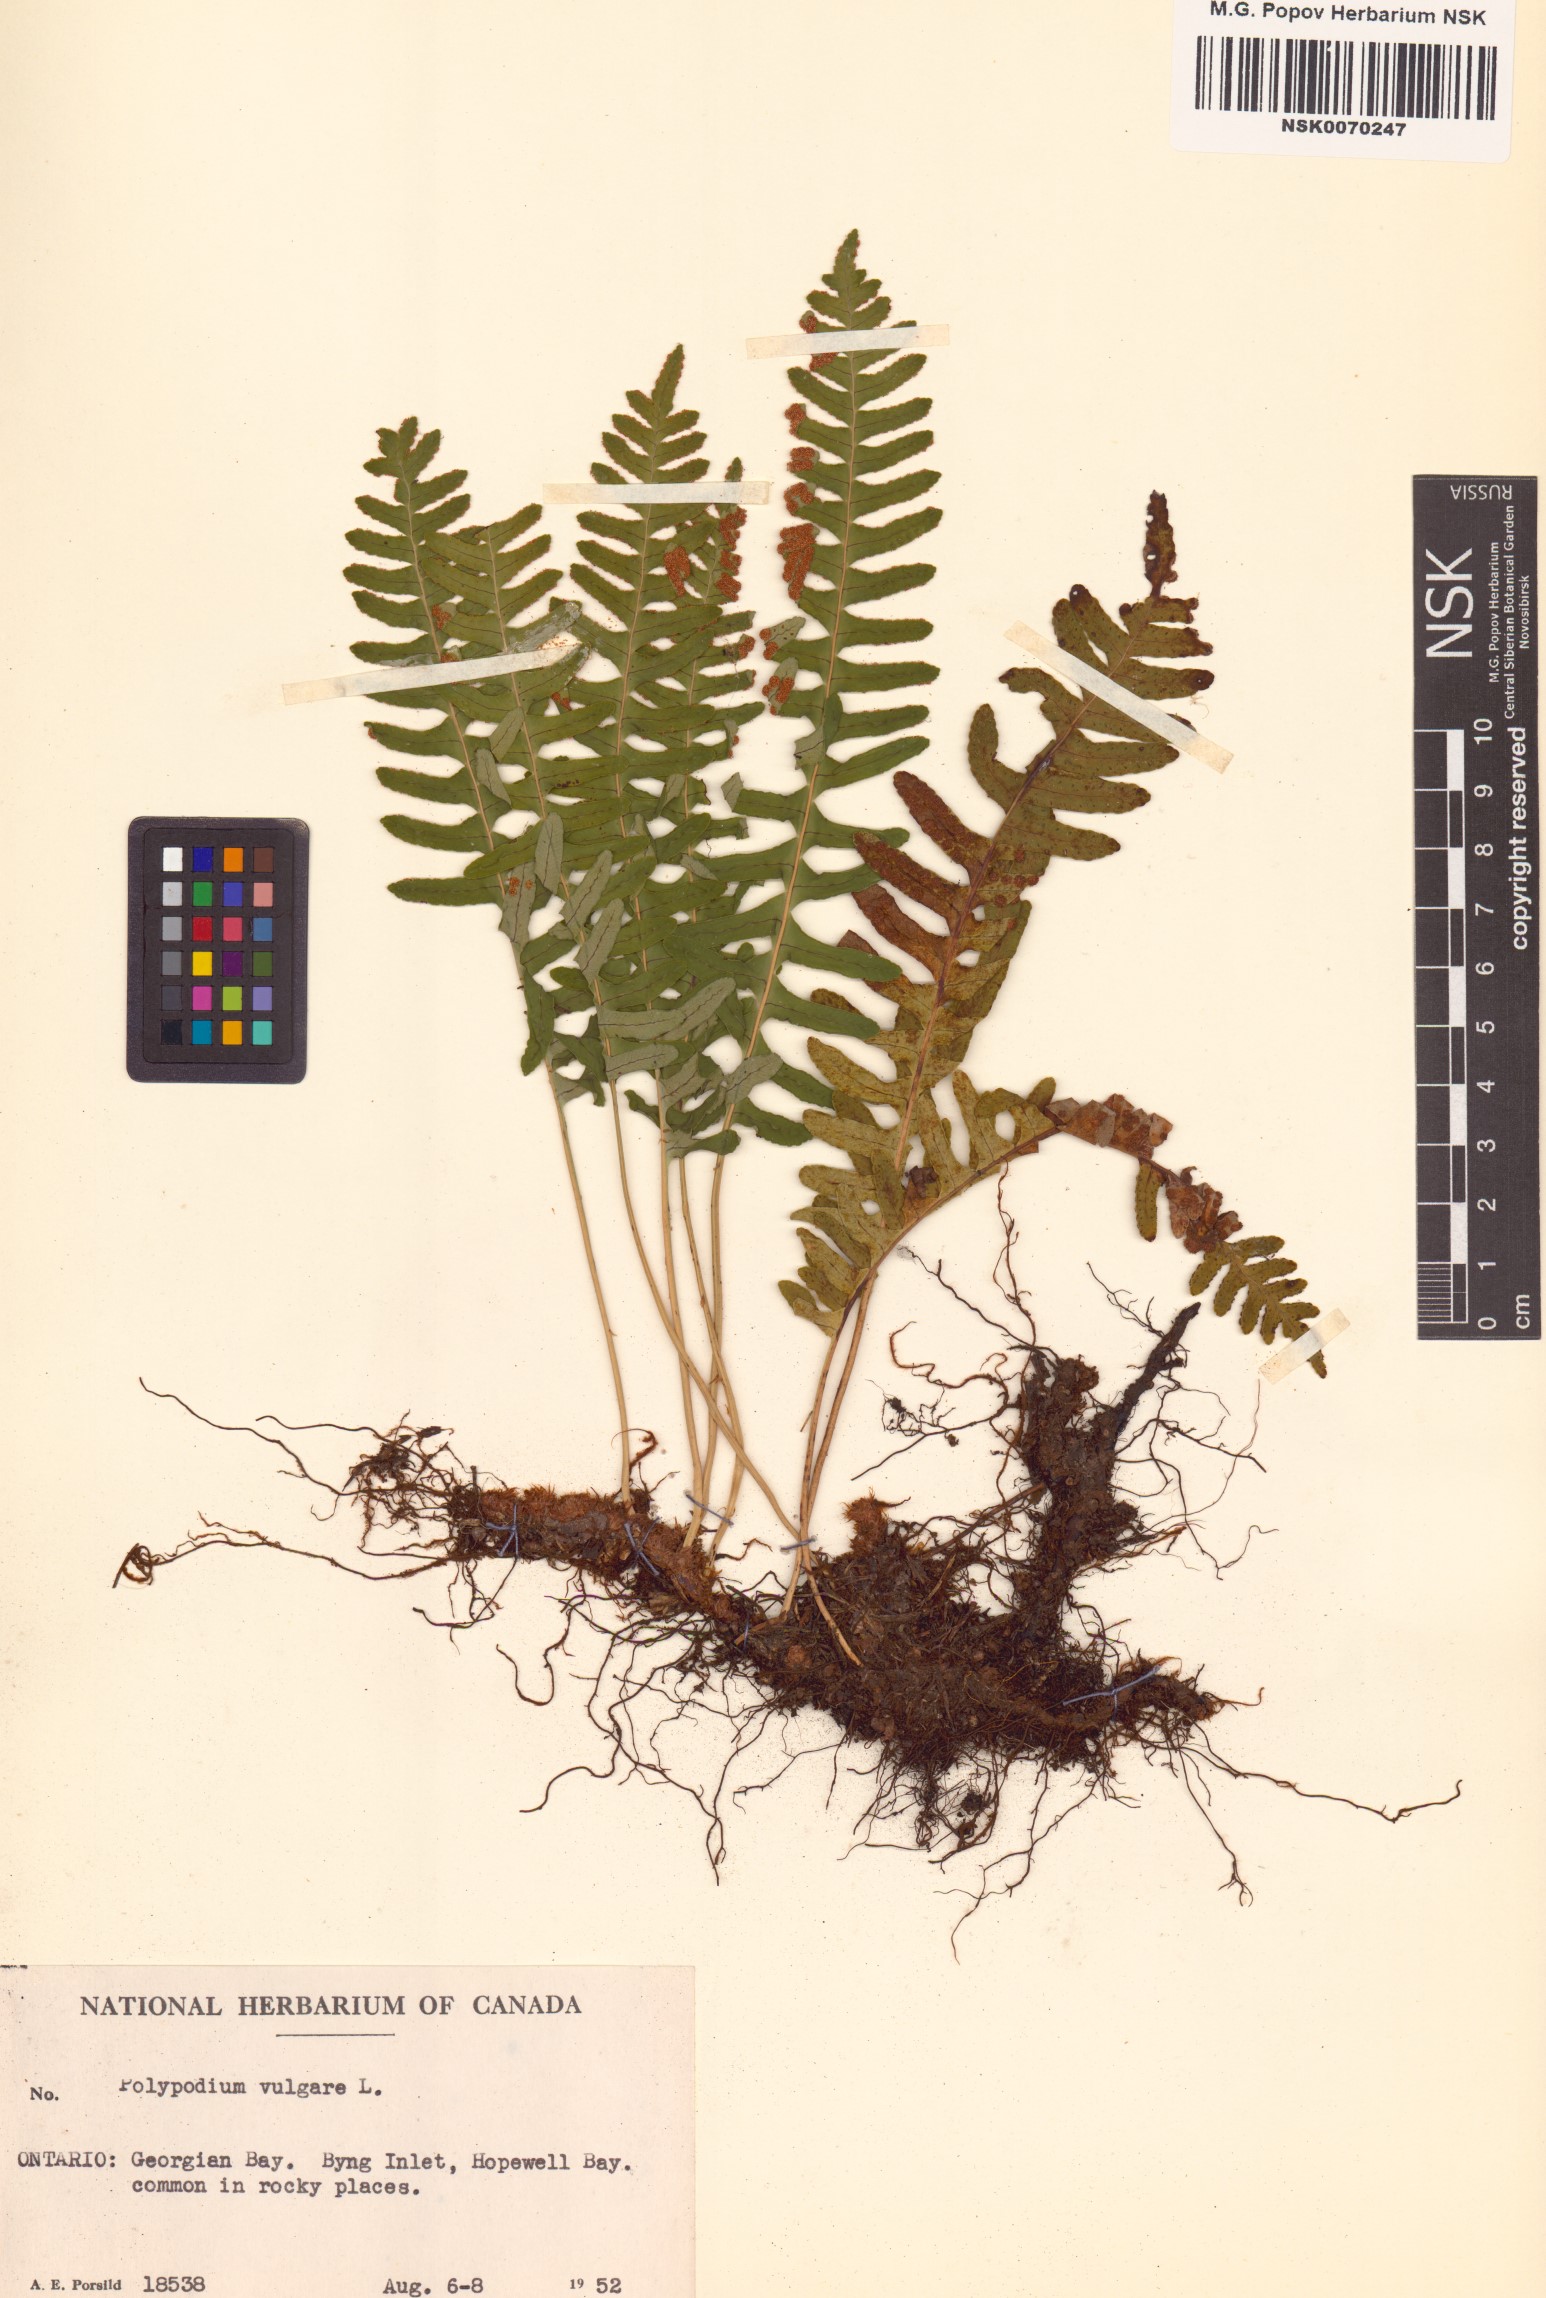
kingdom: Plantae
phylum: Tracheophyta
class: Polypodiopsida
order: Polypodiales
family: Polypodiaceae
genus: Polypodium
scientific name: Polypodium vulgare
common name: Common polypody
